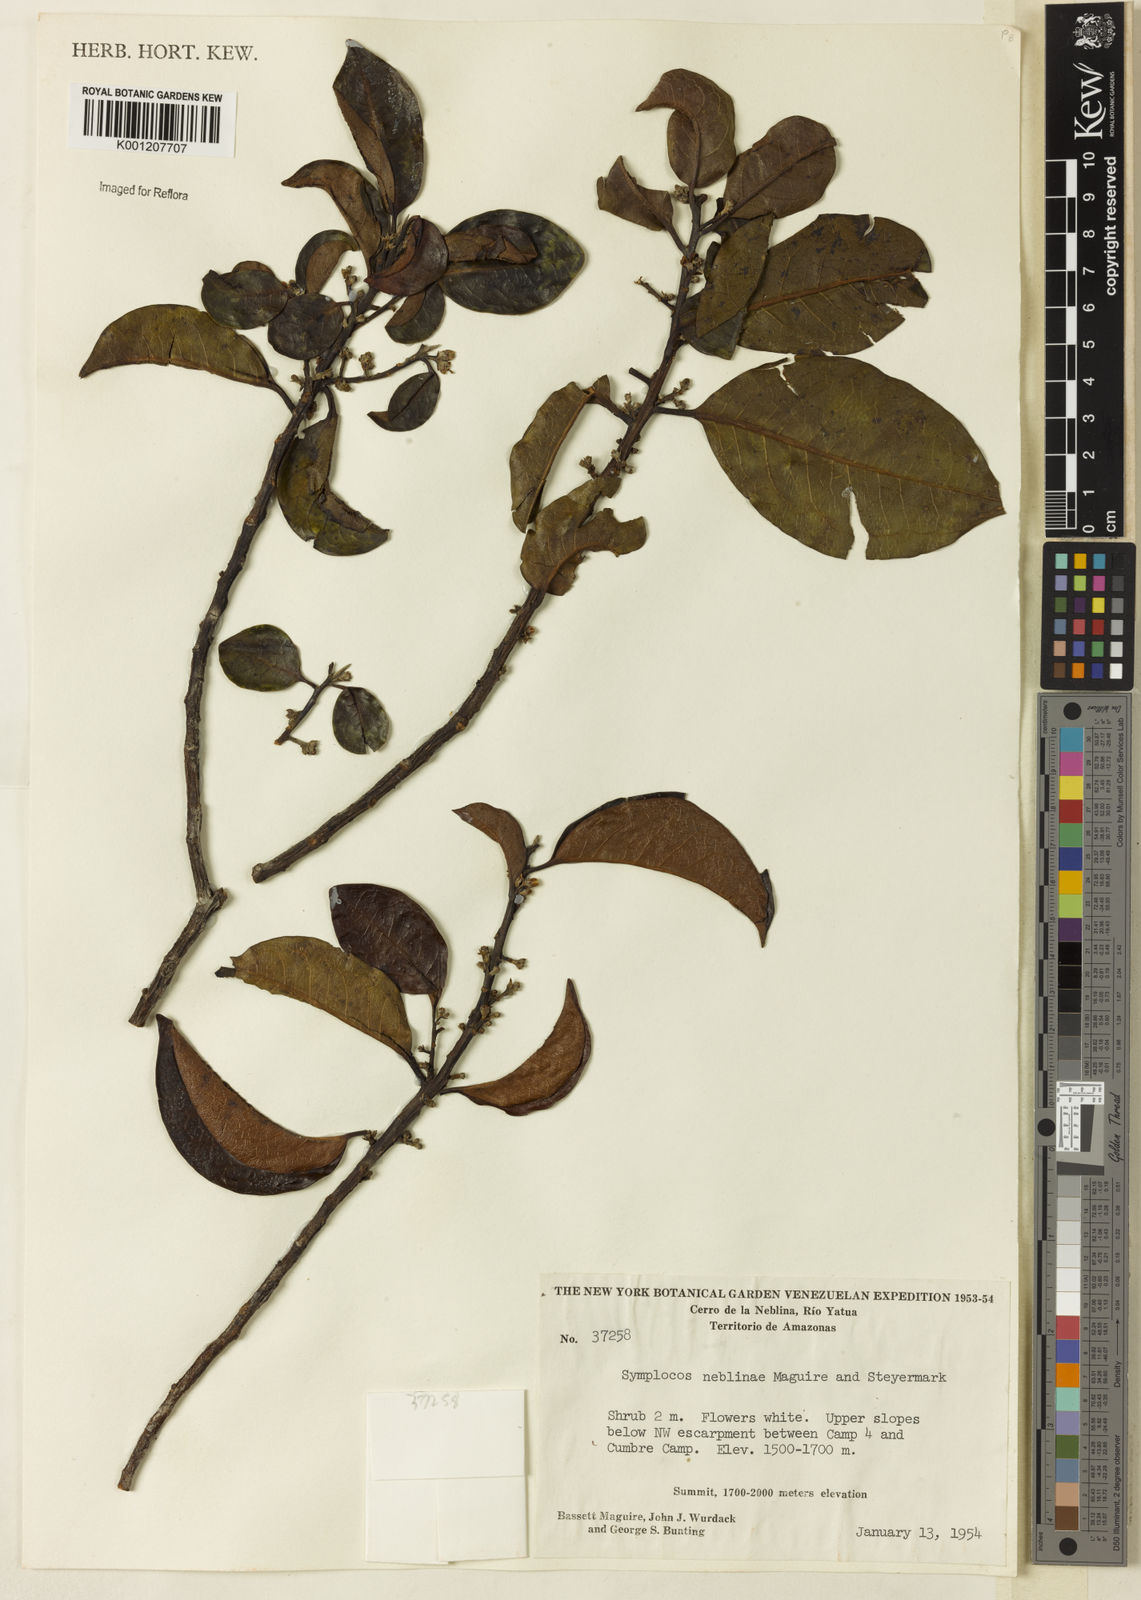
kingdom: Plantae
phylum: Tracheophyta
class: Magnoliopsida
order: Ericales
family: Symplocaceae
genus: Symplocos
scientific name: Symplocos neblinae
